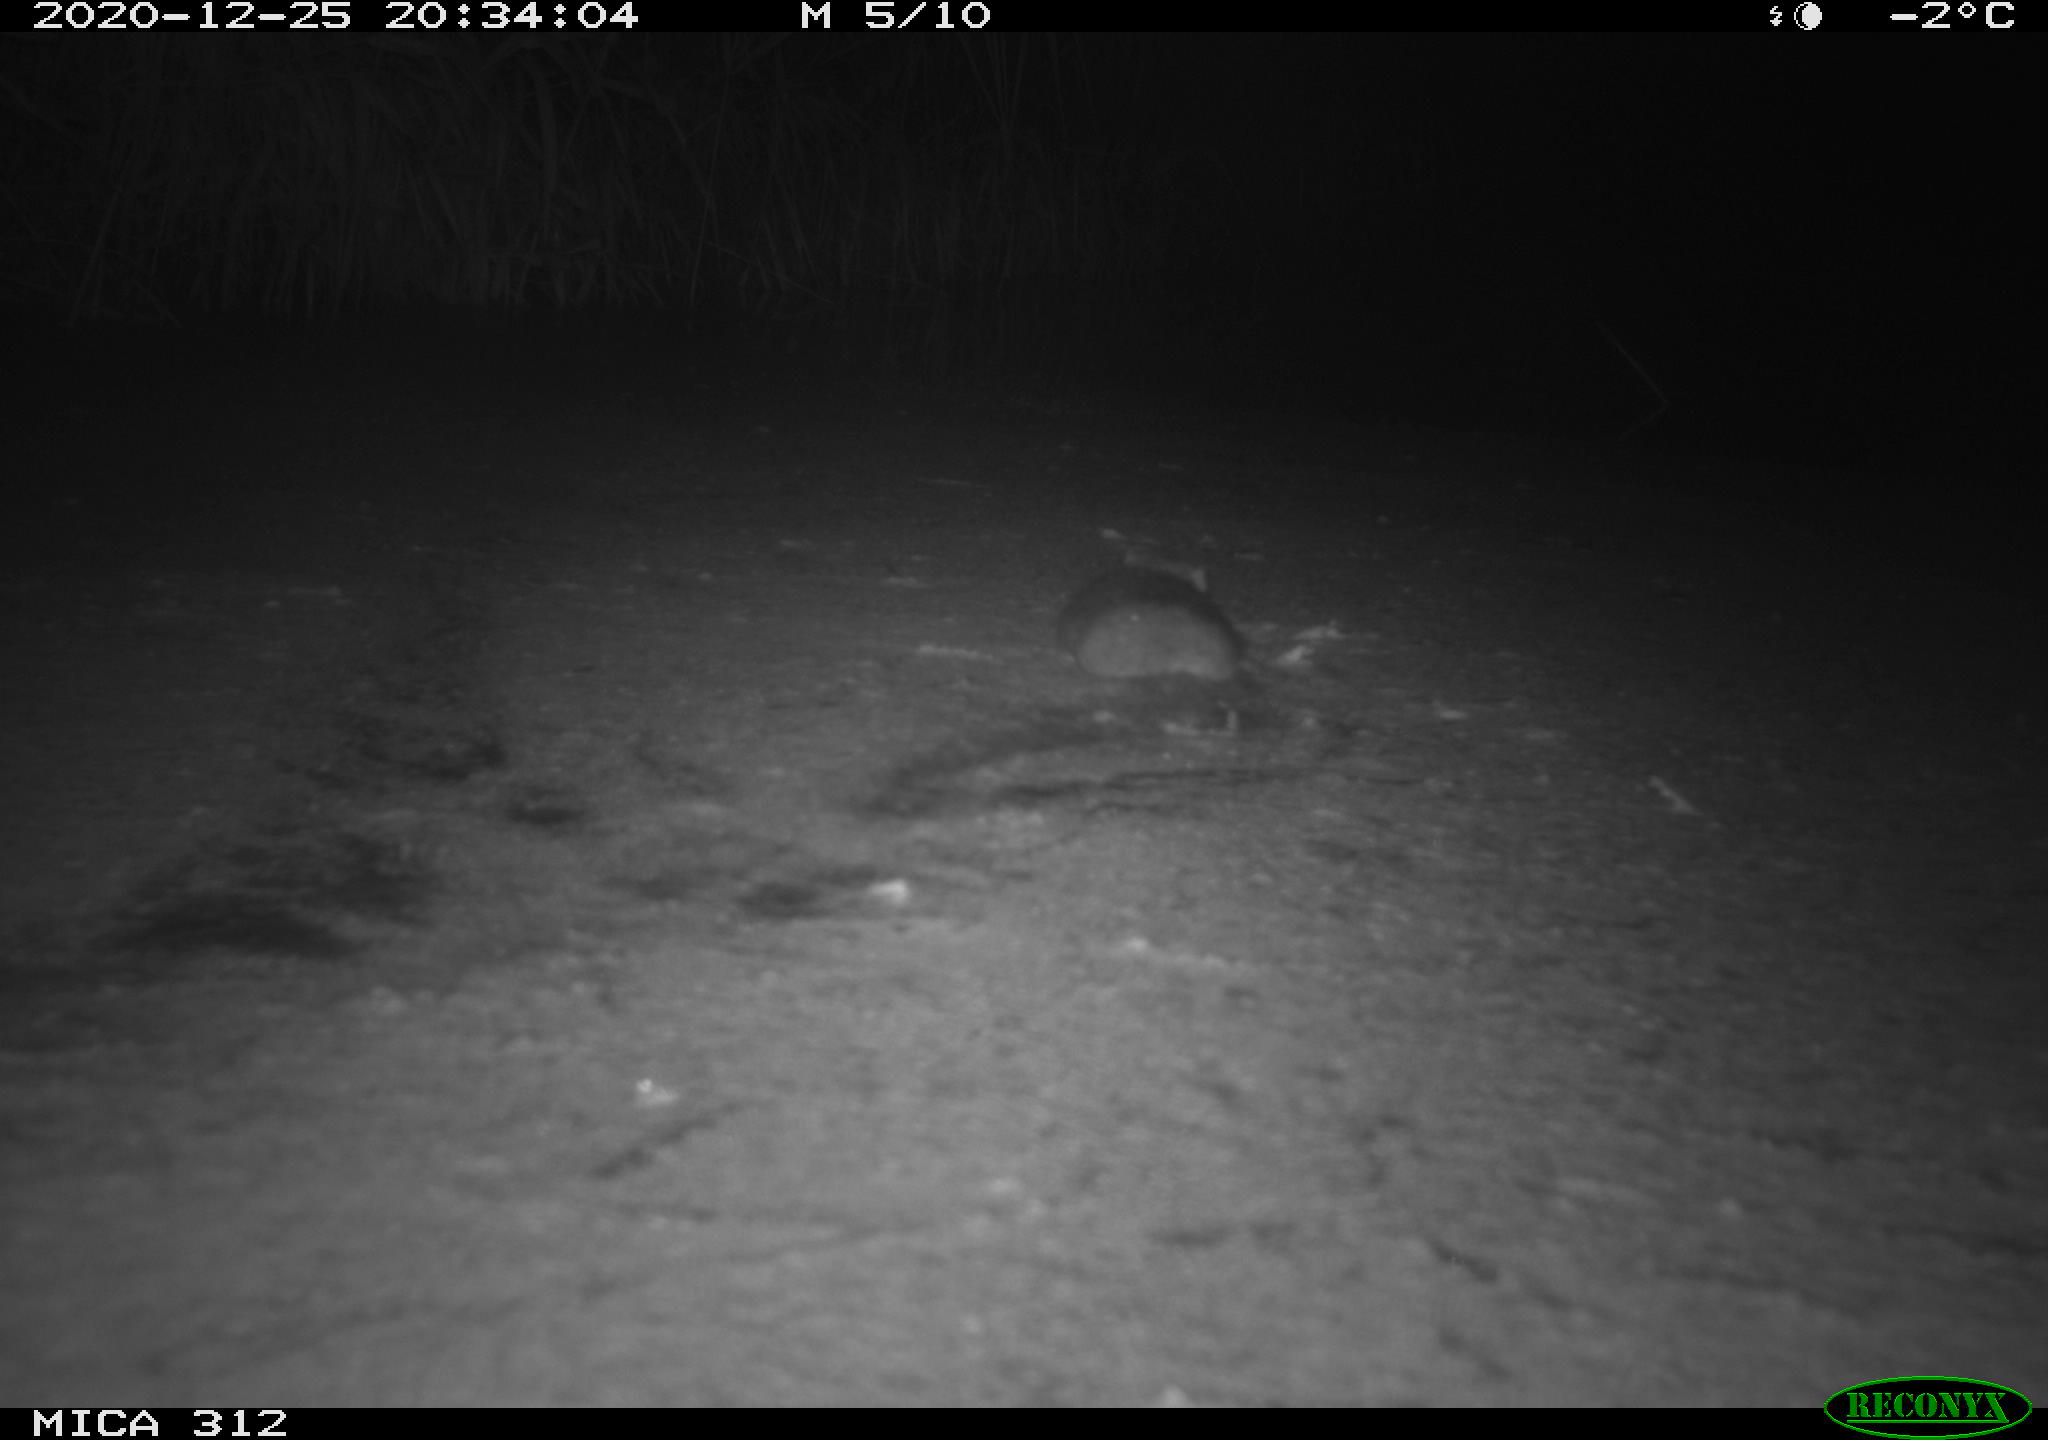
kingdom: Animalia
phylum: Chordata
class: Mammalia
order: Rodentia
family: Muridae
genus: Rattus
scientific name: Rattus norvegicus
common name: Brown rat
